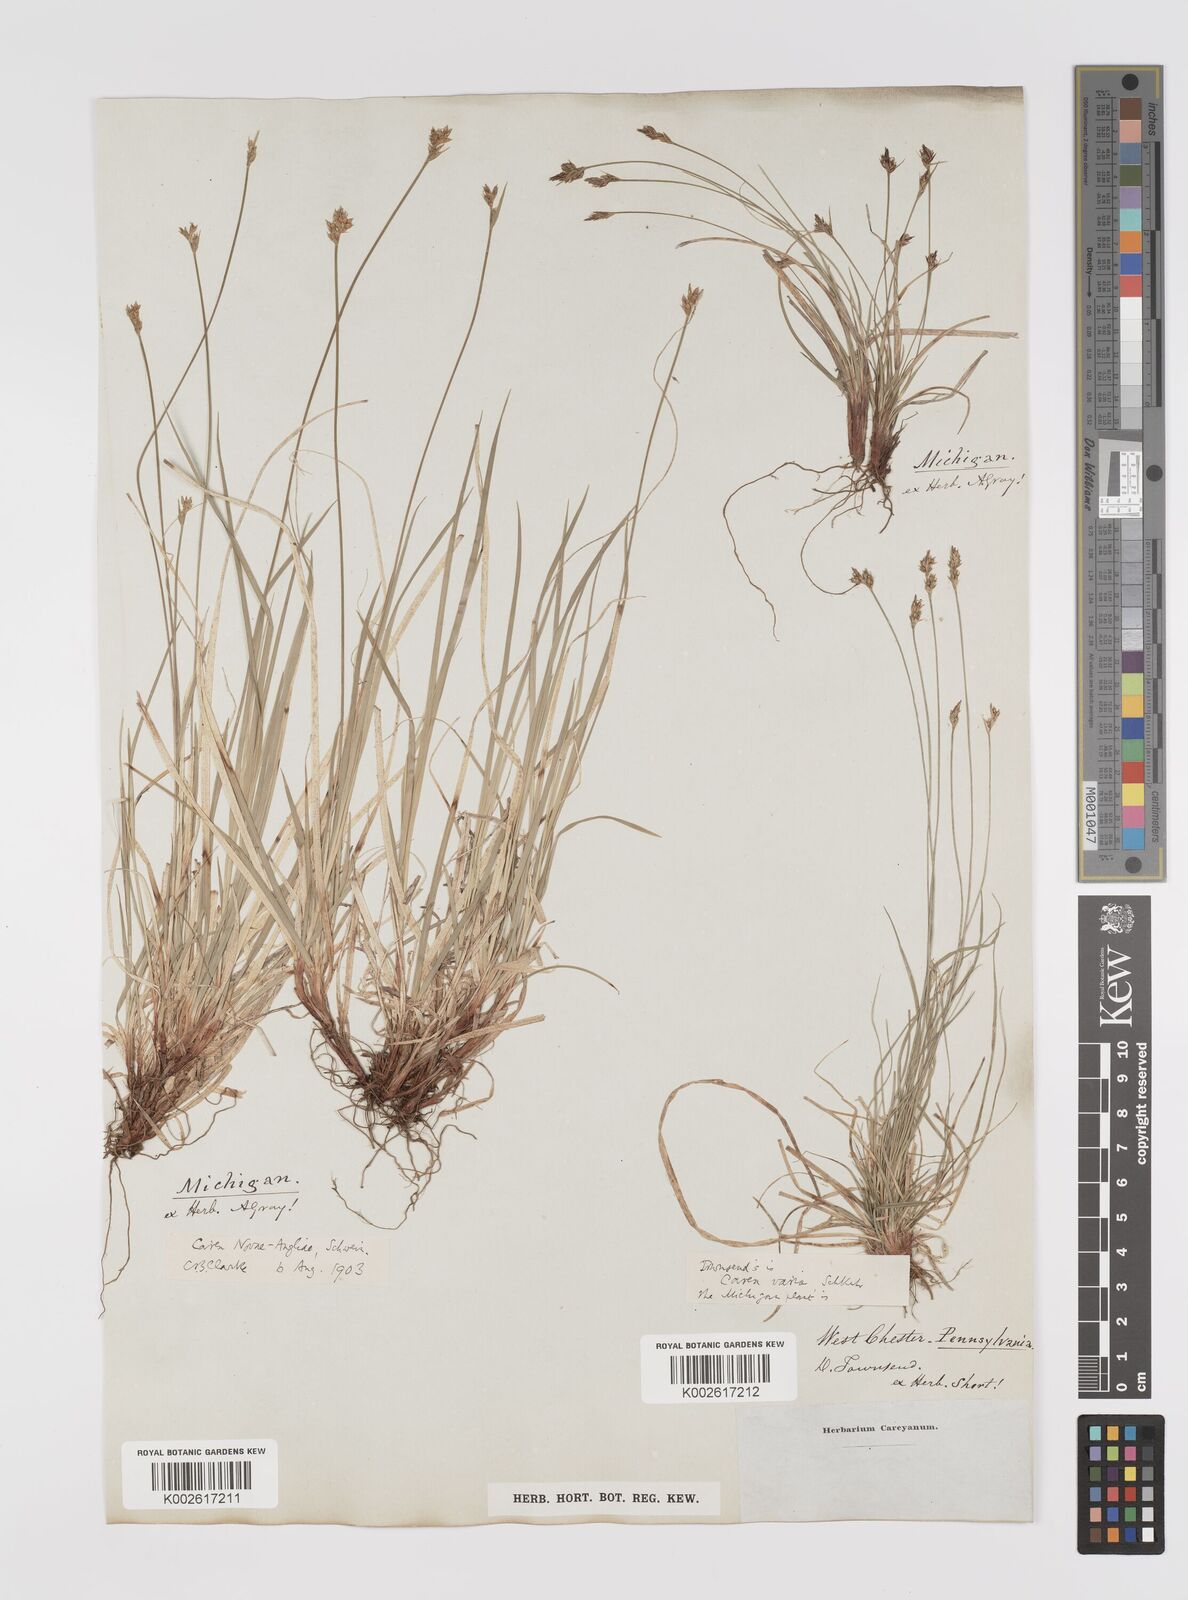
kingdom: Plantae
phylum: Tracheophyta
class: Liliopsida
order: Poales
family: Cyperaceae
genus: Carex
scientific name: Carex albicans
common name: Bellow-beaked sedge
